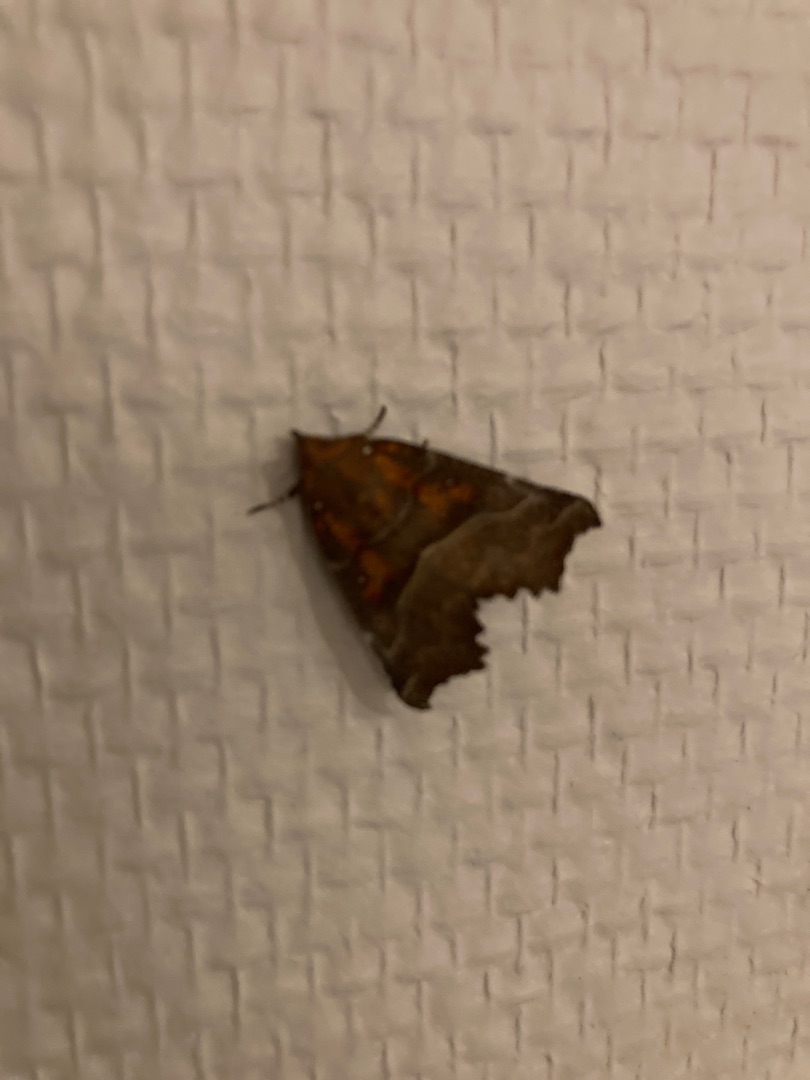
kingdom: Animalia
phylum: Arthropoda
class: Insecta
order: Lepidoptera
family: Erebidae
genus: Scoliopteryx
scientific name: Scoliopteryx libatrix
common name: Husmoderugle
